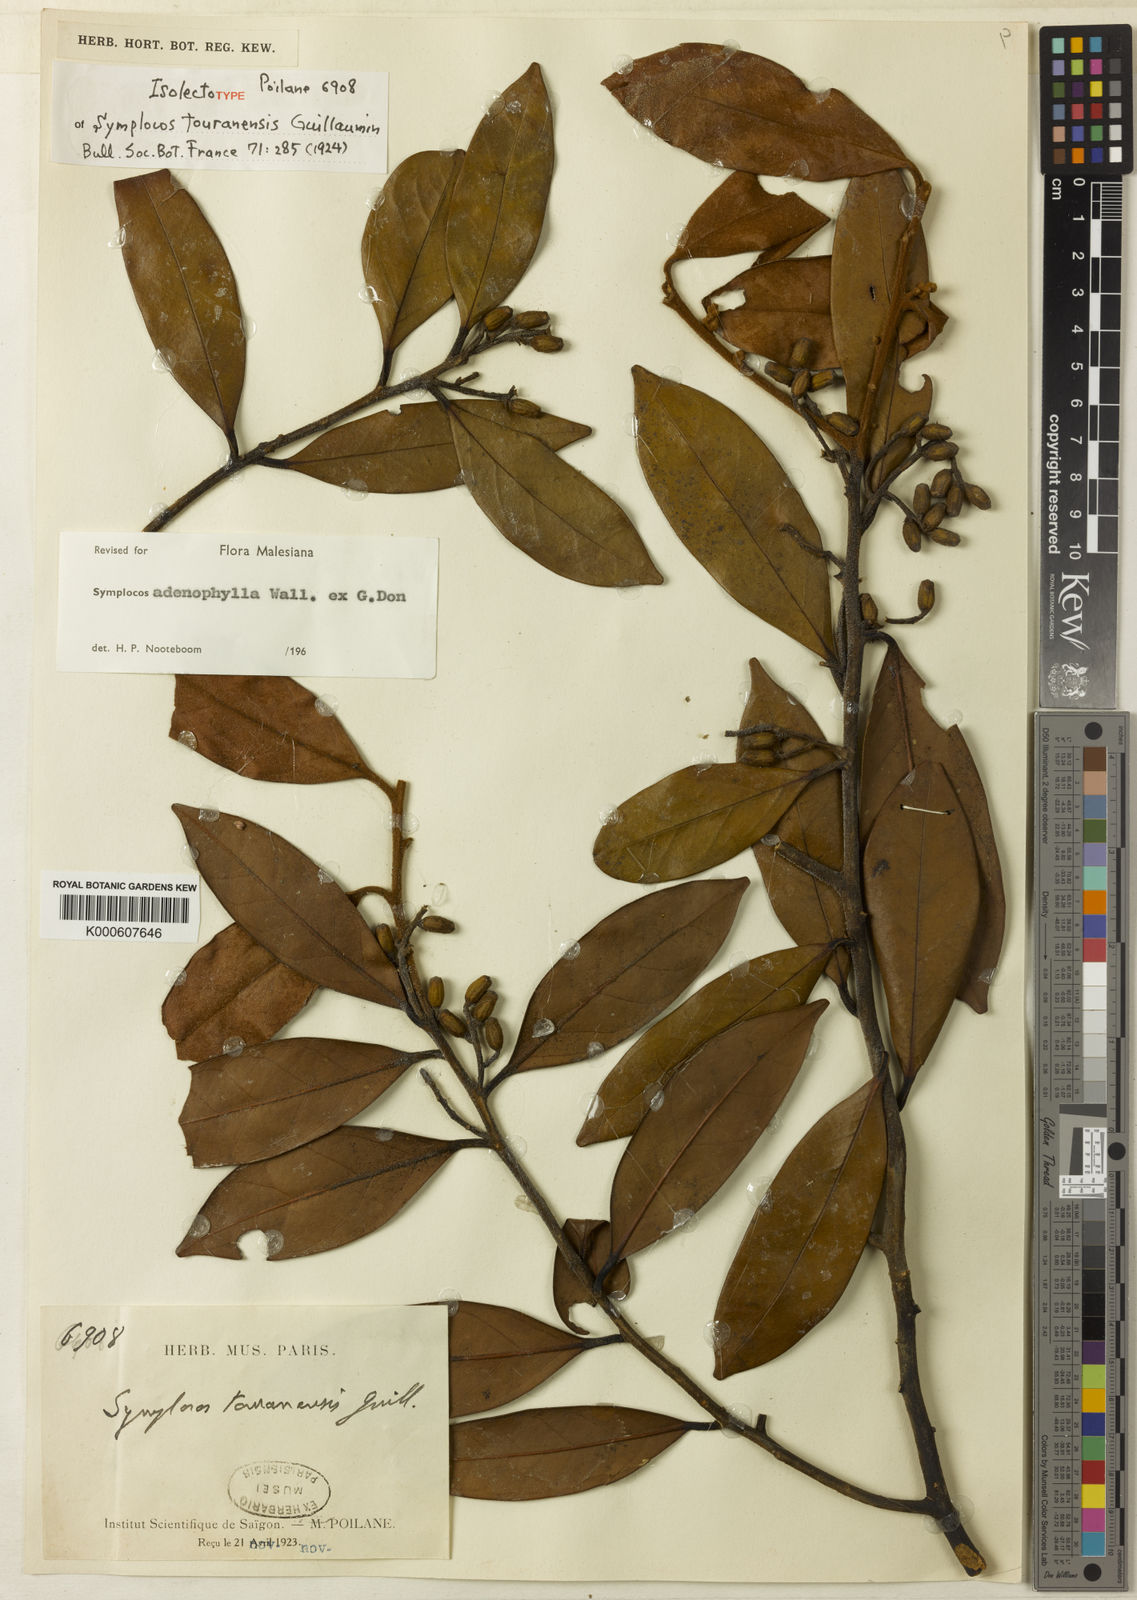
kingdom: Plantae
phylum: Tracheophyta
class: Magnoliopsida
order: Ericales
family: Symplocaceae
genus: Symplocos
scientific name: Symplocos adenophylla
